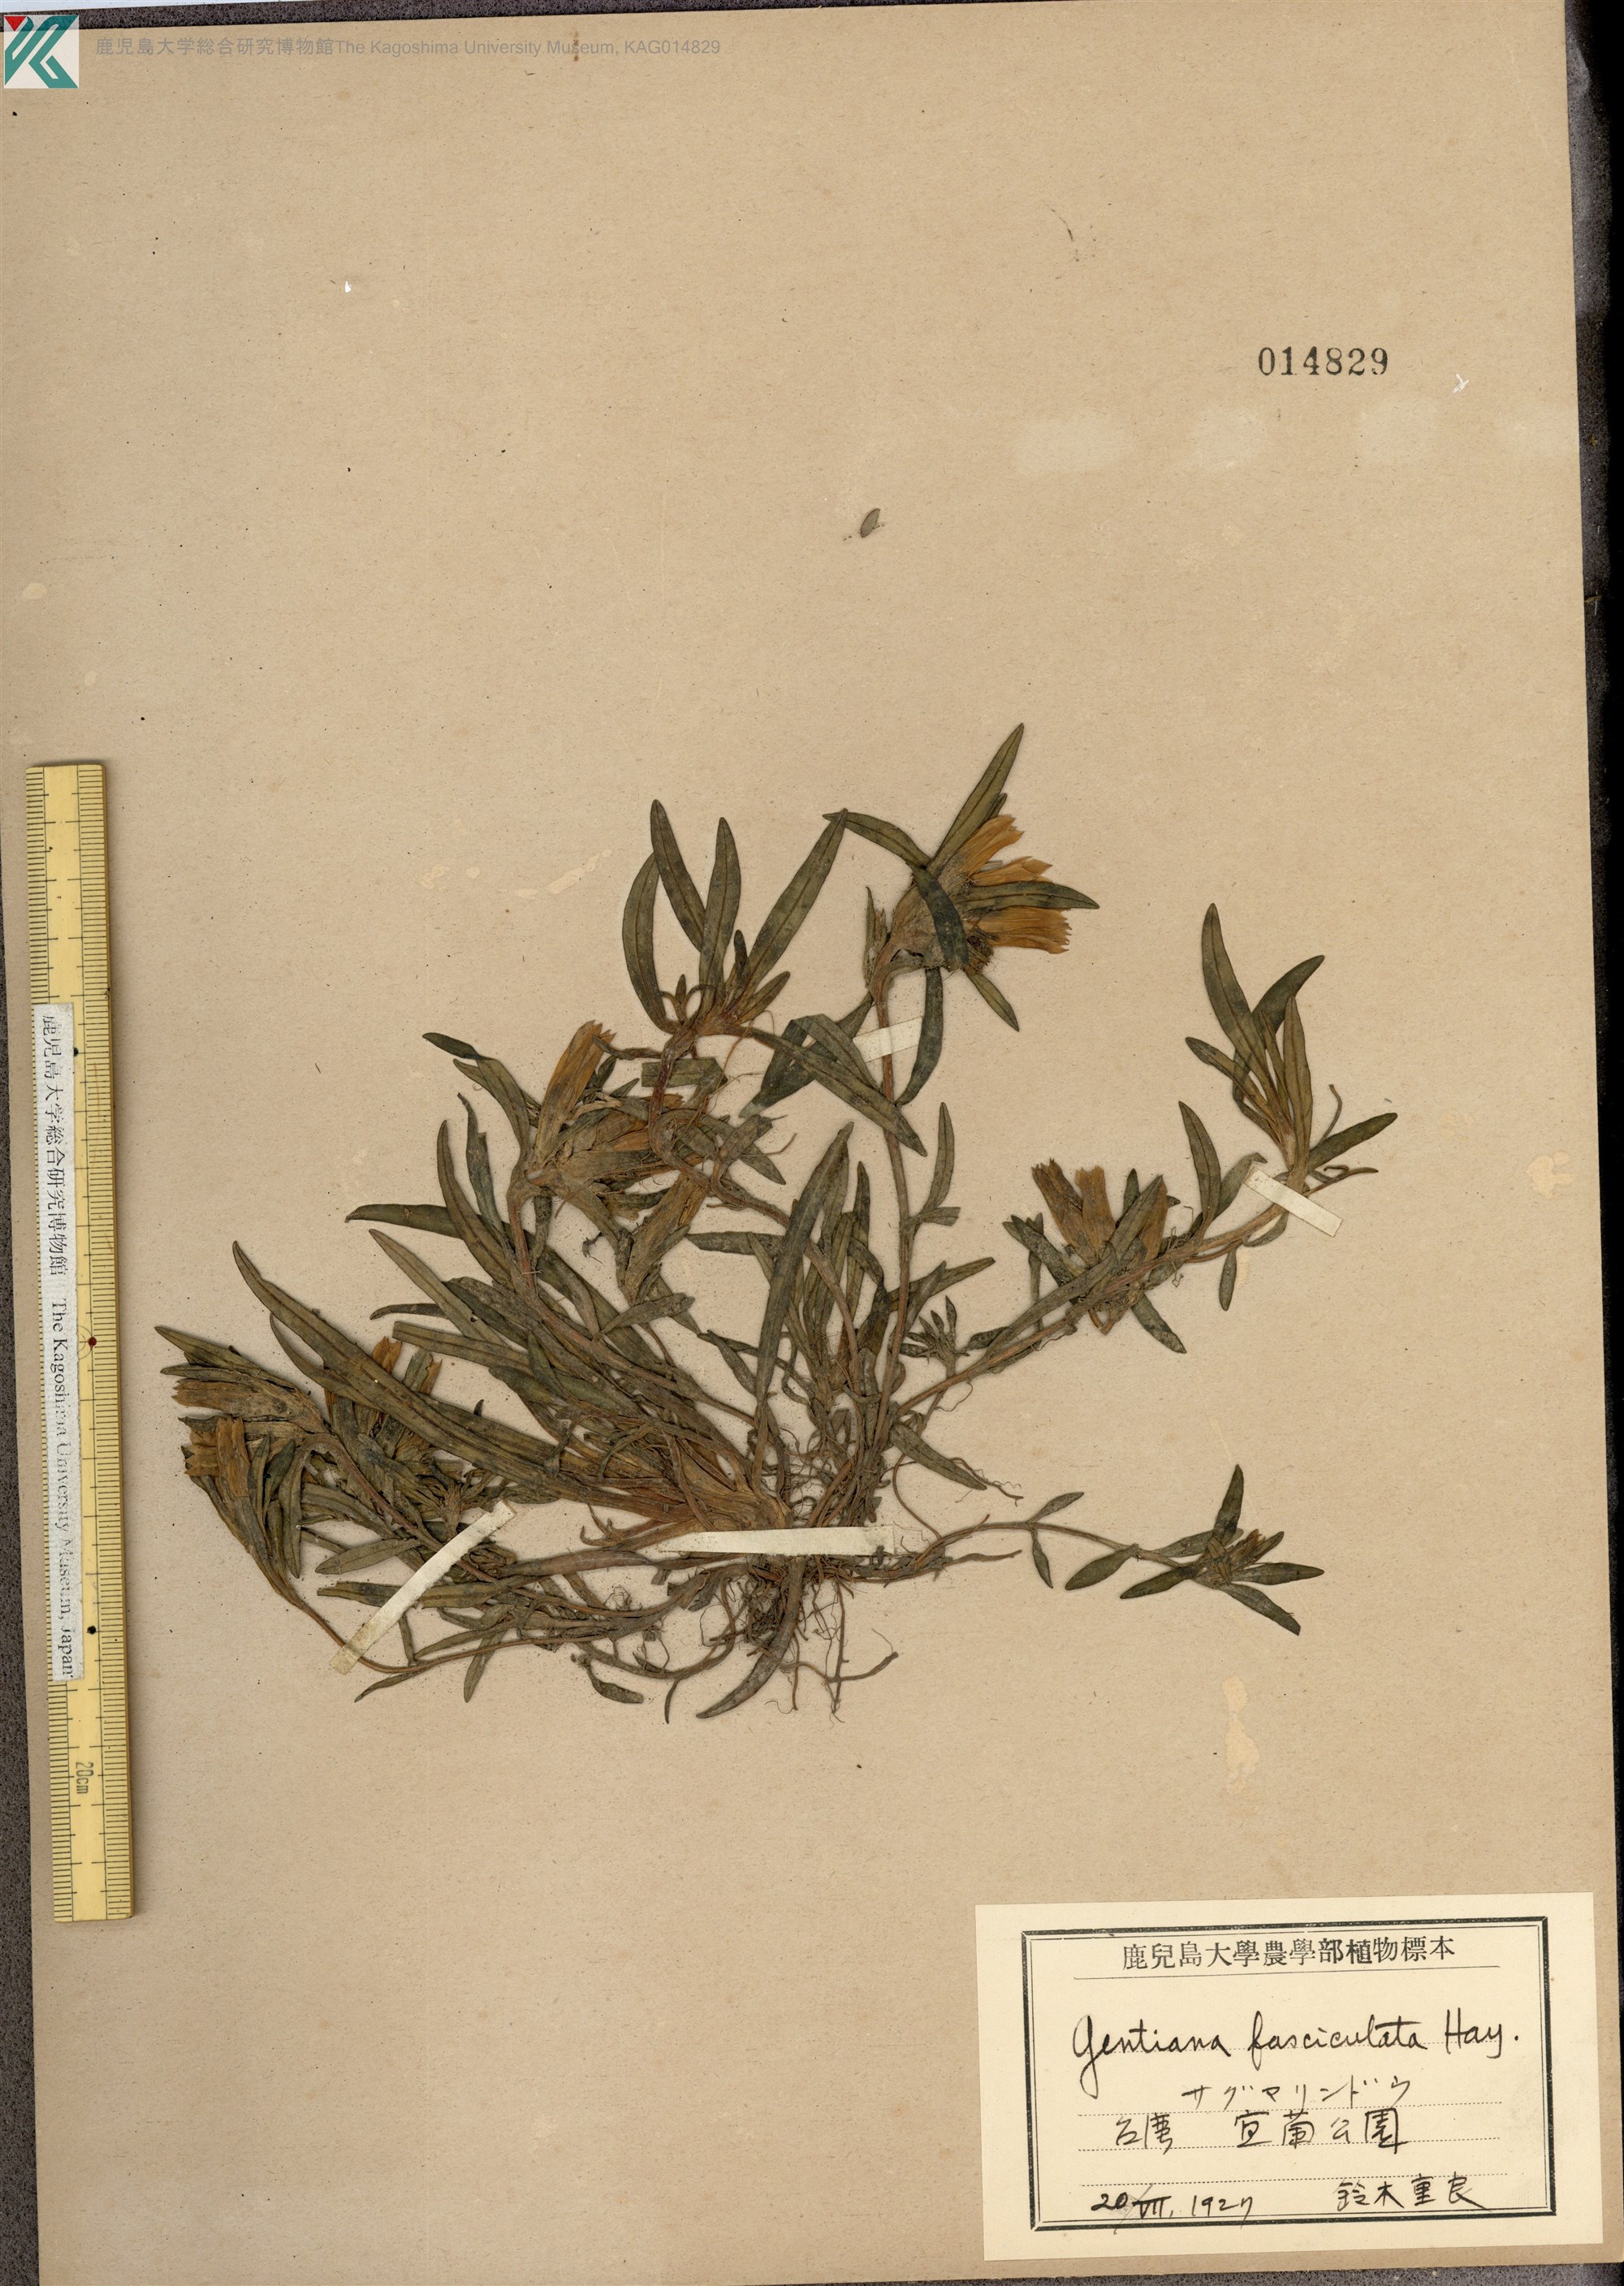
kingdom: Plantae
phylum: Tracheophyta
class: Magnoliopsida
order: Gentianales
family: Gentianaceae
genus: Gentiana
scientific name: Gentiana davidii
